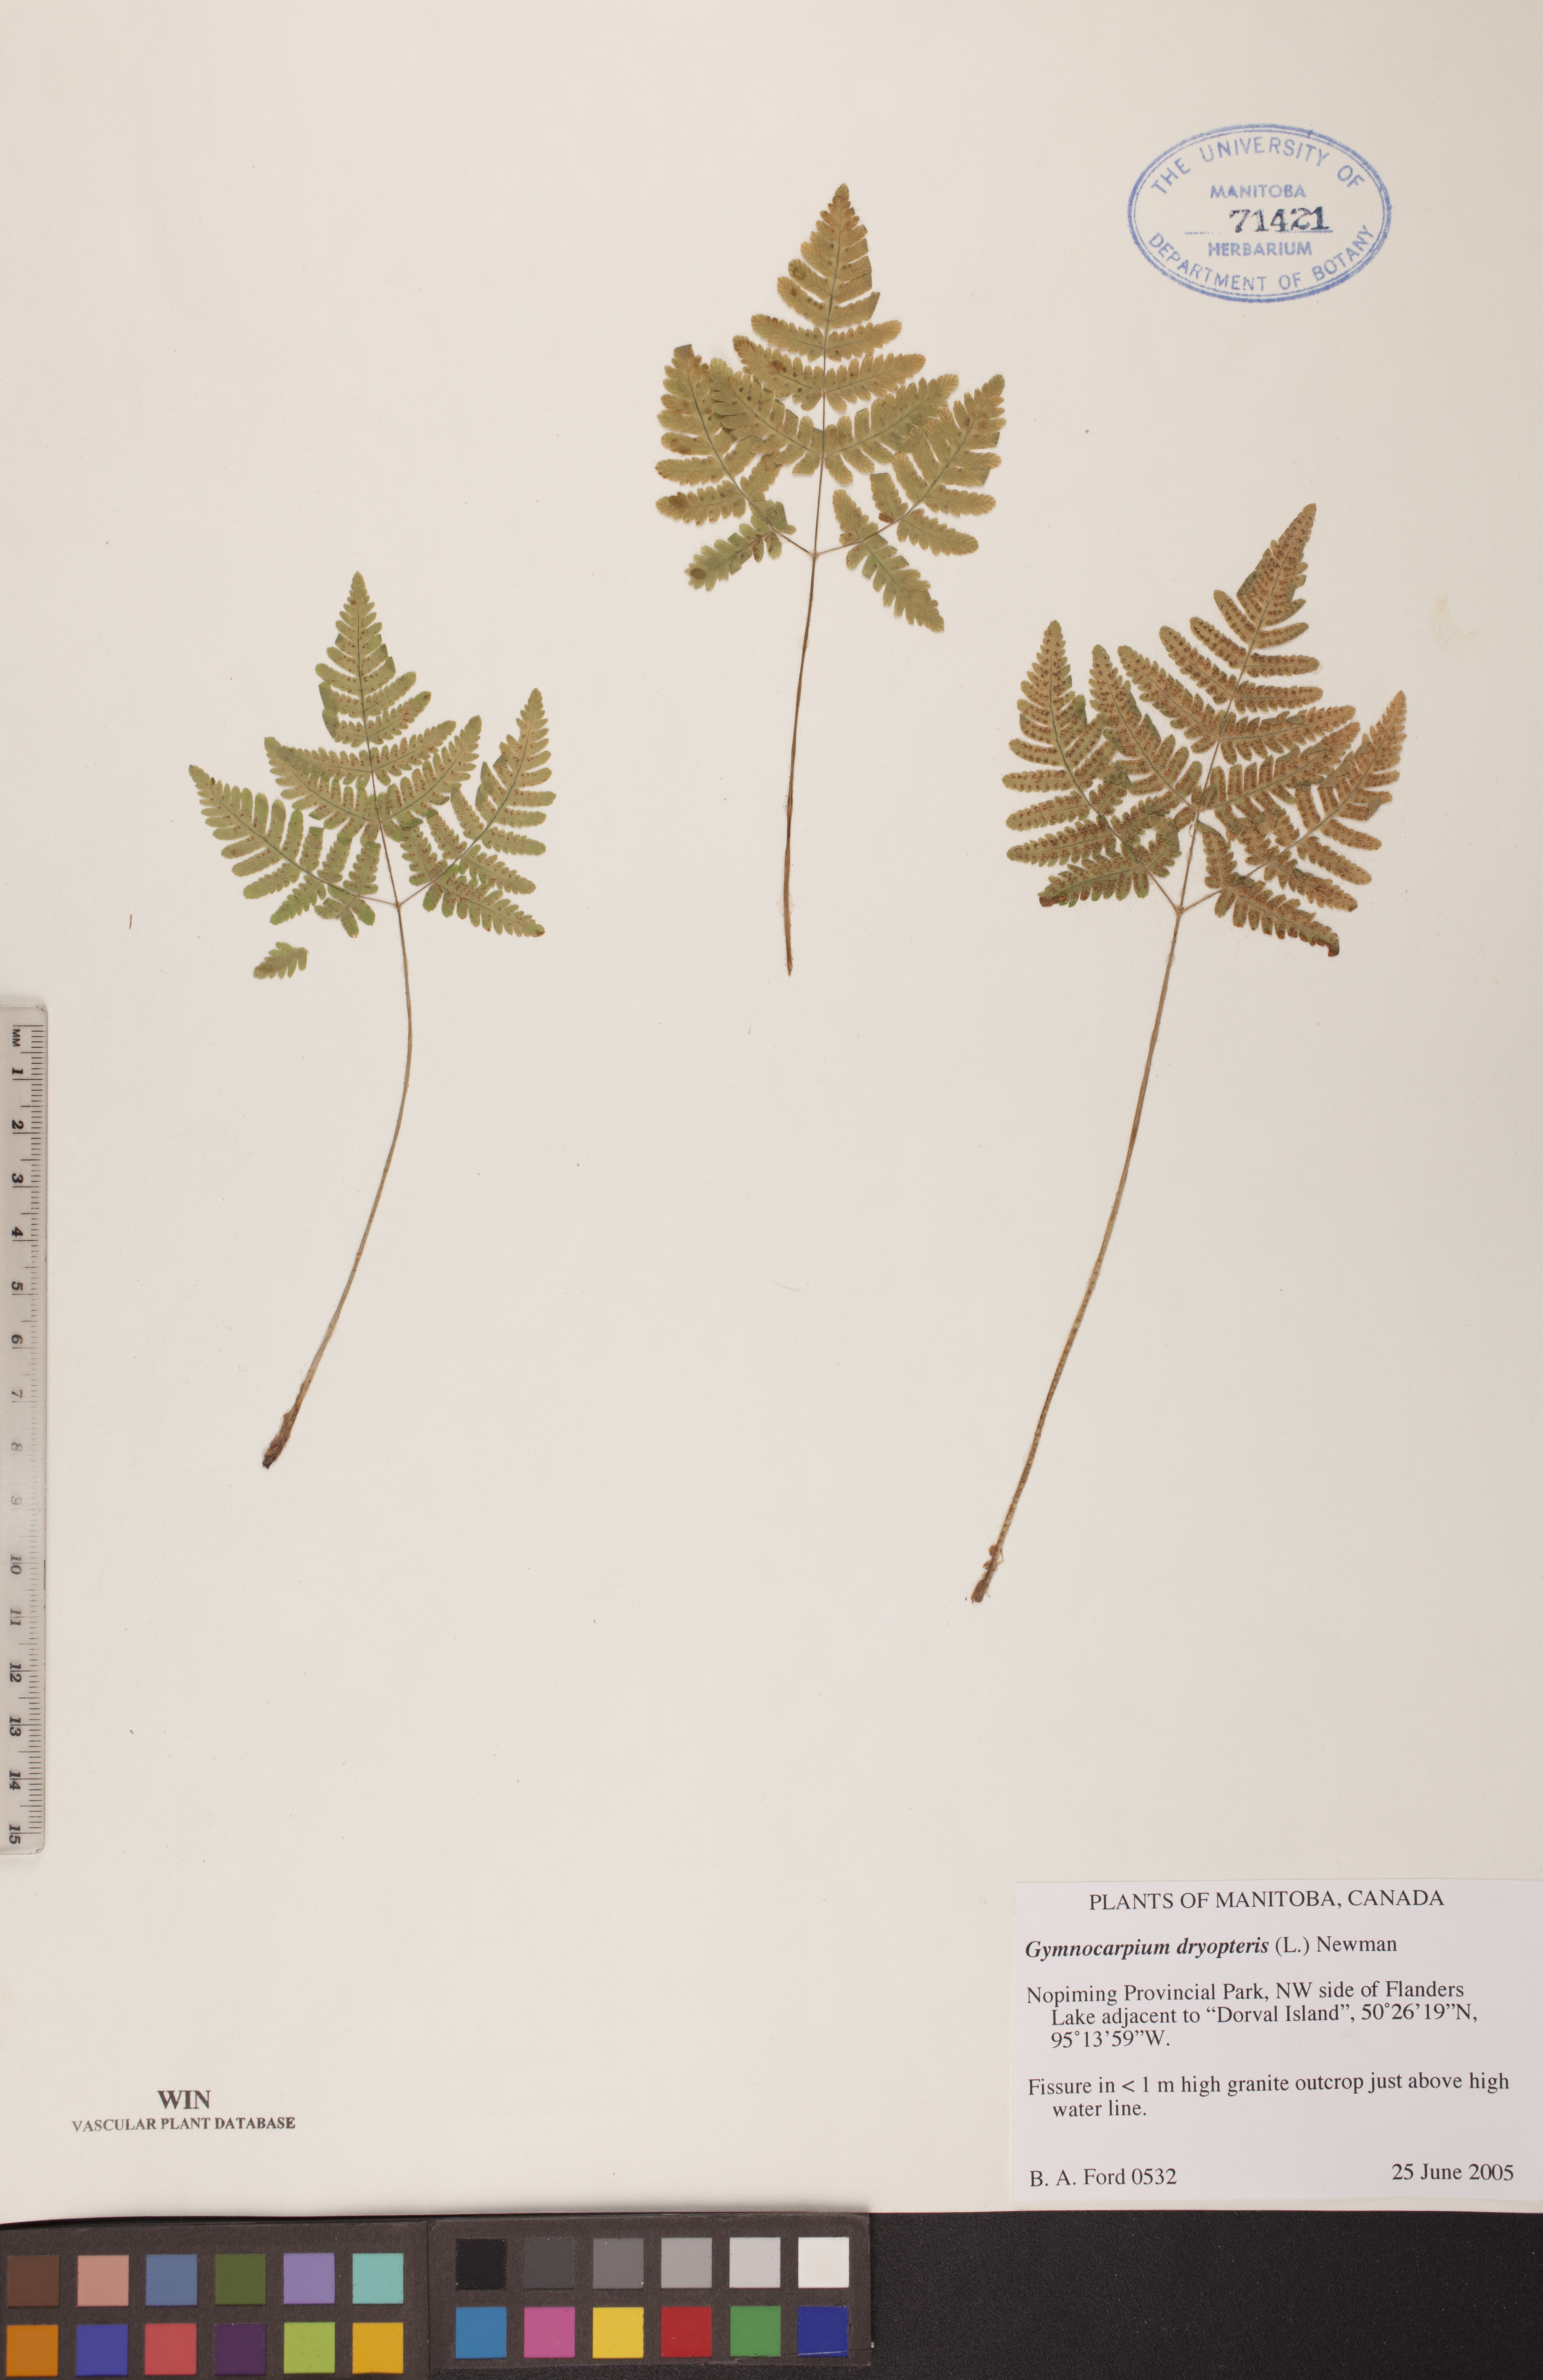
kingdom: Plantae
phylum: Tracheophyta
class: Polypodiopsida
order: Polypodiales
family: Cystopteridaceae
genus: Gymnocarpium
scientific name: Gymnocarpium dryopteris
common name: Oak fern
